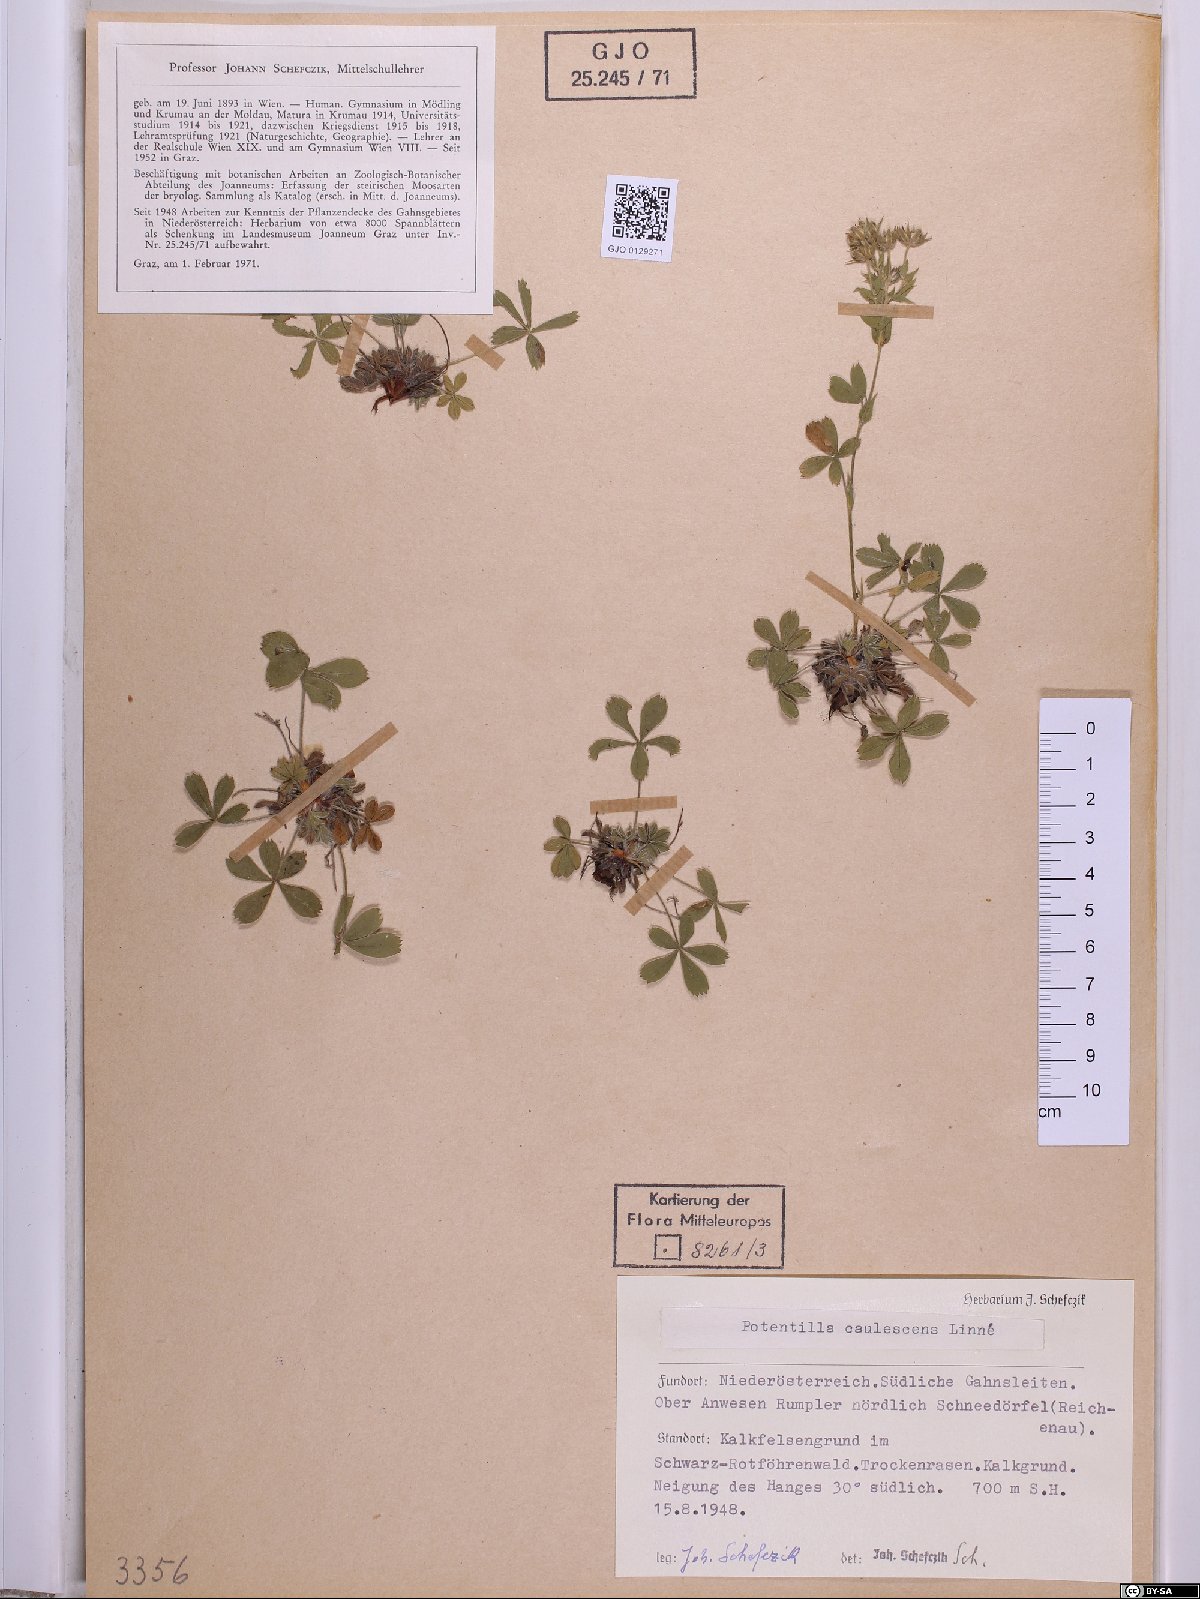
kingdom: Plantae
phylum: Tracheophyta
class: Magnoliopsida
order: Rosales
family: Rosaceae
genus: Potentilla
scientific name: Potentilla caulescens
